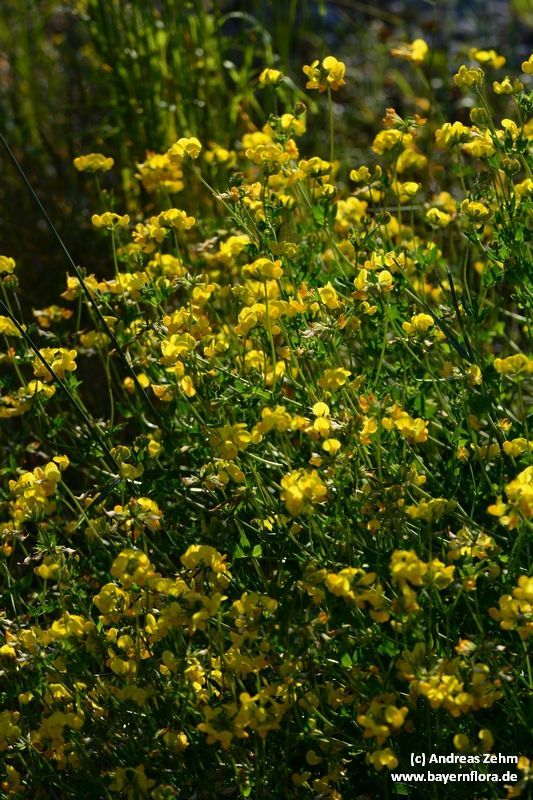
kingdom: Plantae
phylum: Tracheophyta
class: Magnoliopsida
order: Fabales
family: Fabaceae
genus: Lotus
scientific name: Lotus corniculatus
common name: Common bird's-foot-trefoil
